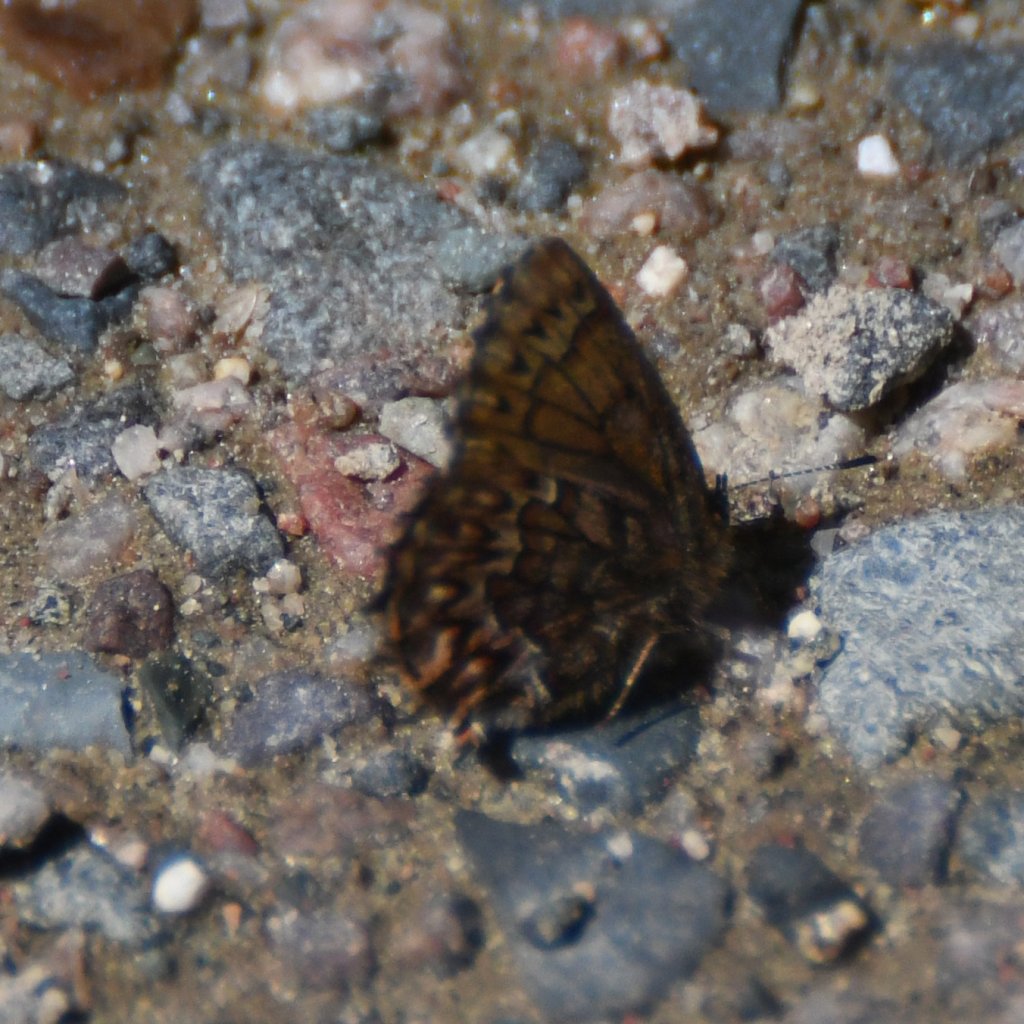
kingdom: Animalia
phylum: Arthropoda
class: Insecta
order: Lepidoptera
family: Lycaenidae
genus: Incisalia
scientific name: Incisalia eryphon
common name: Western Pine Elfin
